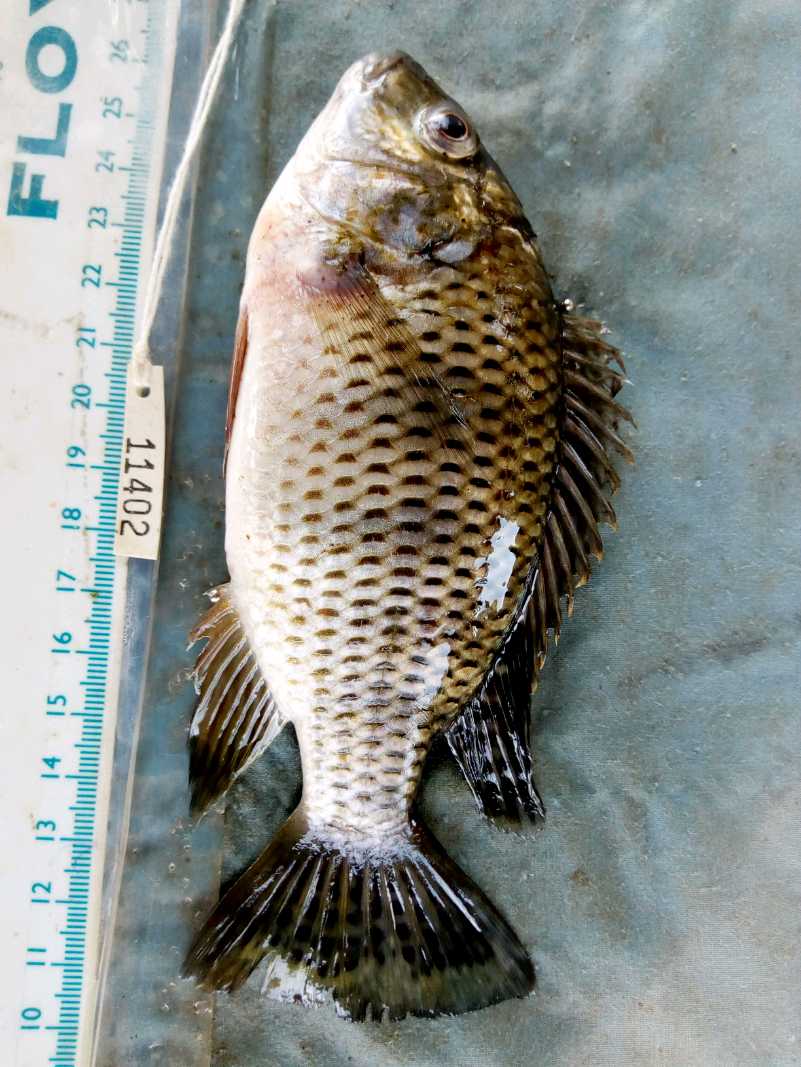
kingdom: Animalia
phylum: Chordata
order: Perciformes
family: Cichlidae
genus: Coptodon
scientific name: Coptodon zillii
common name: Redbelly tilapia
